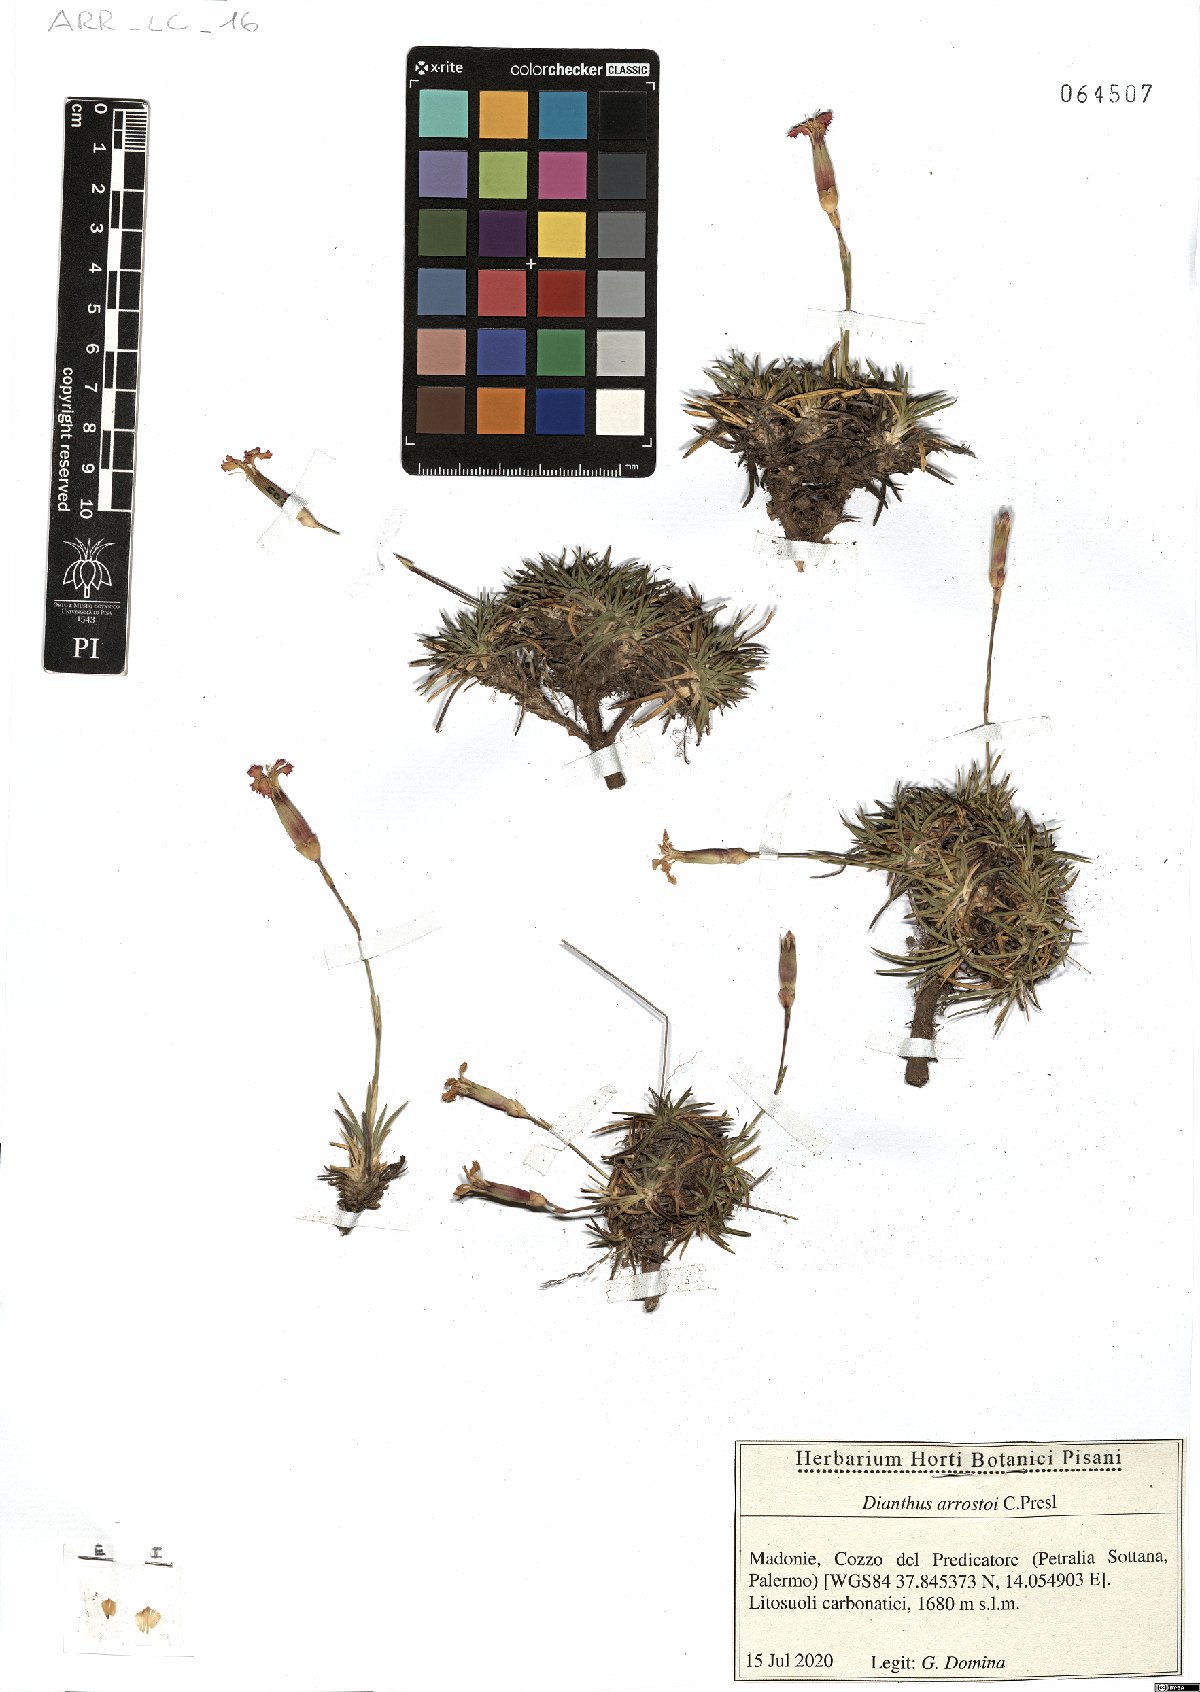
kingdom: Plantae
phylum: Tracheophyta
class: Magnoliopsida
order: Caryophyllales
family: Caryophyllaceae
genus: Dianthus
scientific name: Dianthus arrostoi
